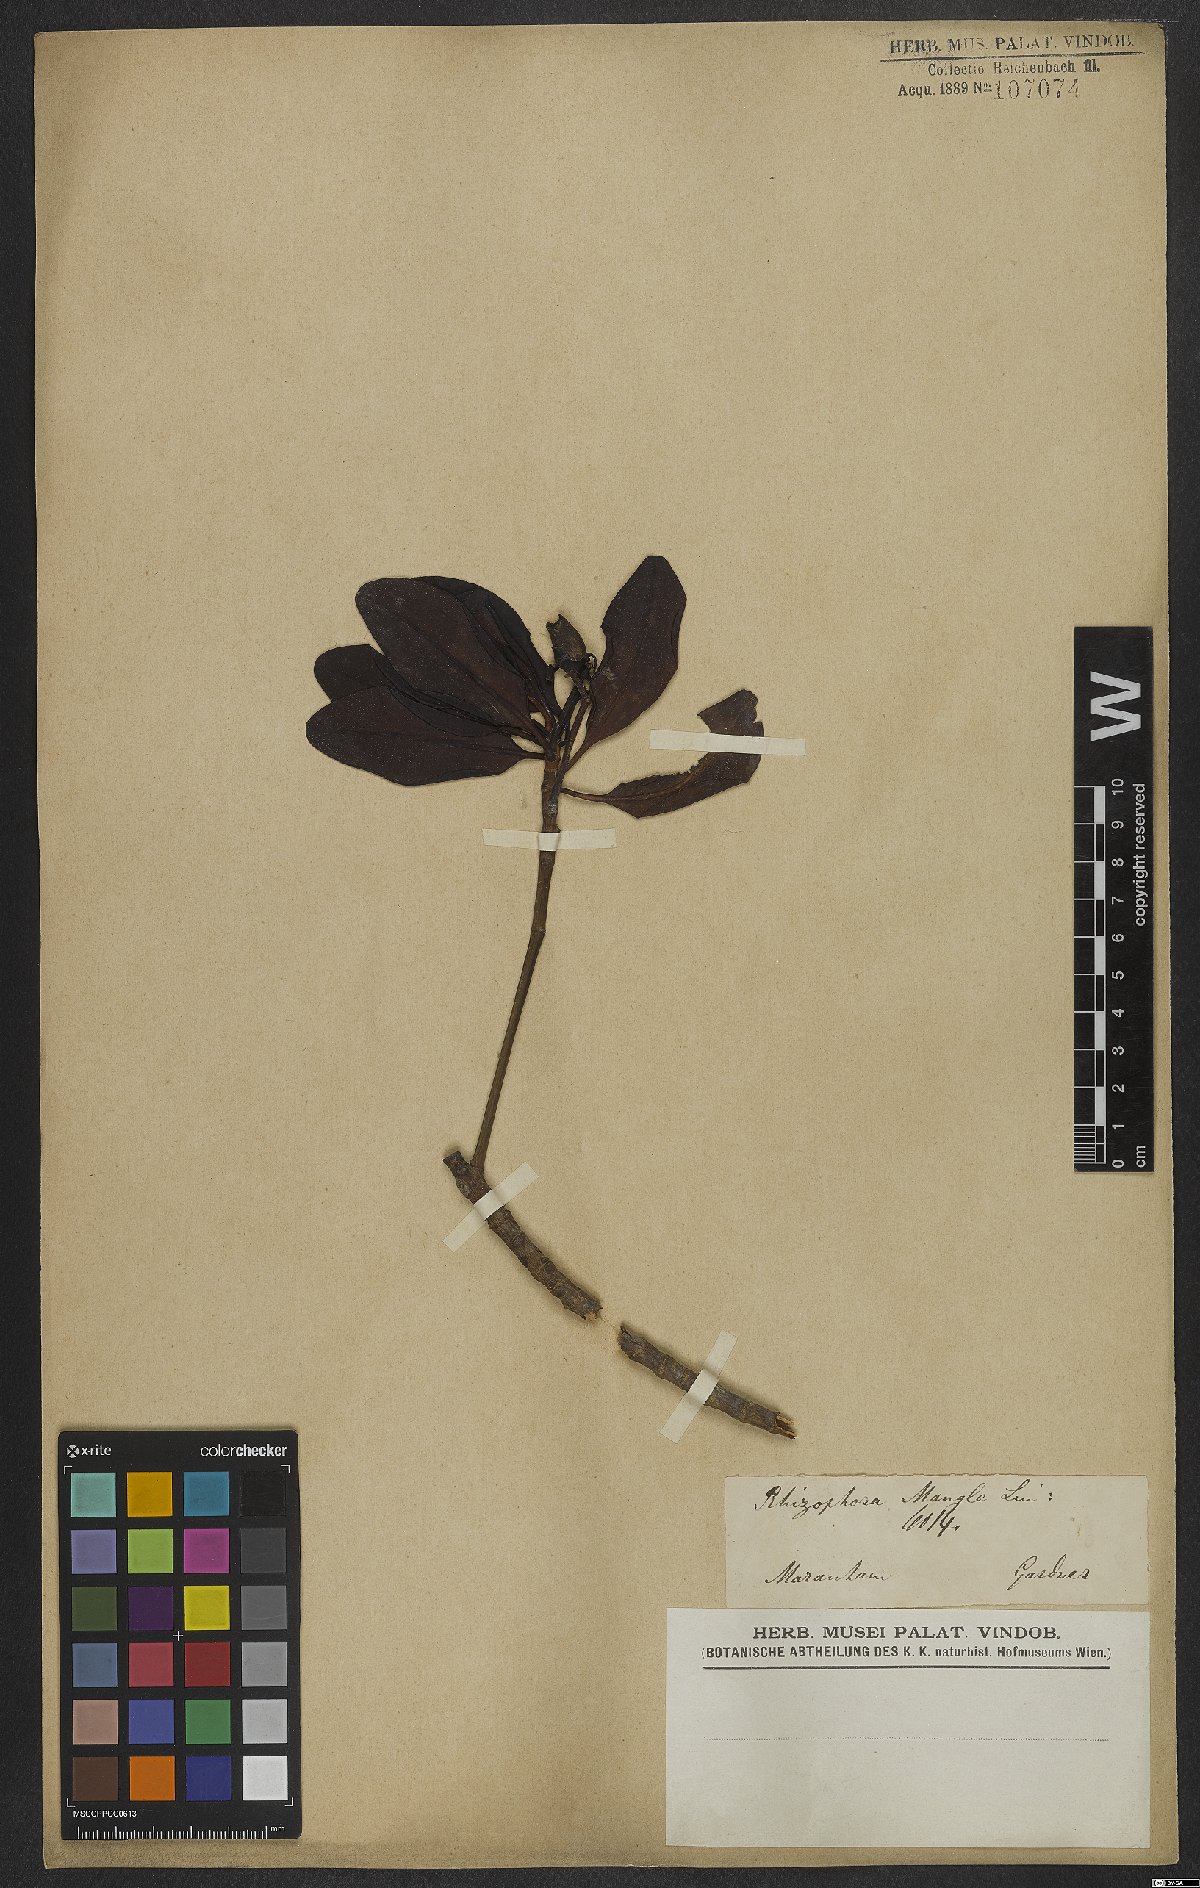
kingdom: Plantae
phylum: Tracheophyta
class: Magnoliopsida
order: Malpighiales
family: Rhizophoraceae
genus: Rhizophora
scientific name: Rhizophora mangle
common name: Red mangrove
